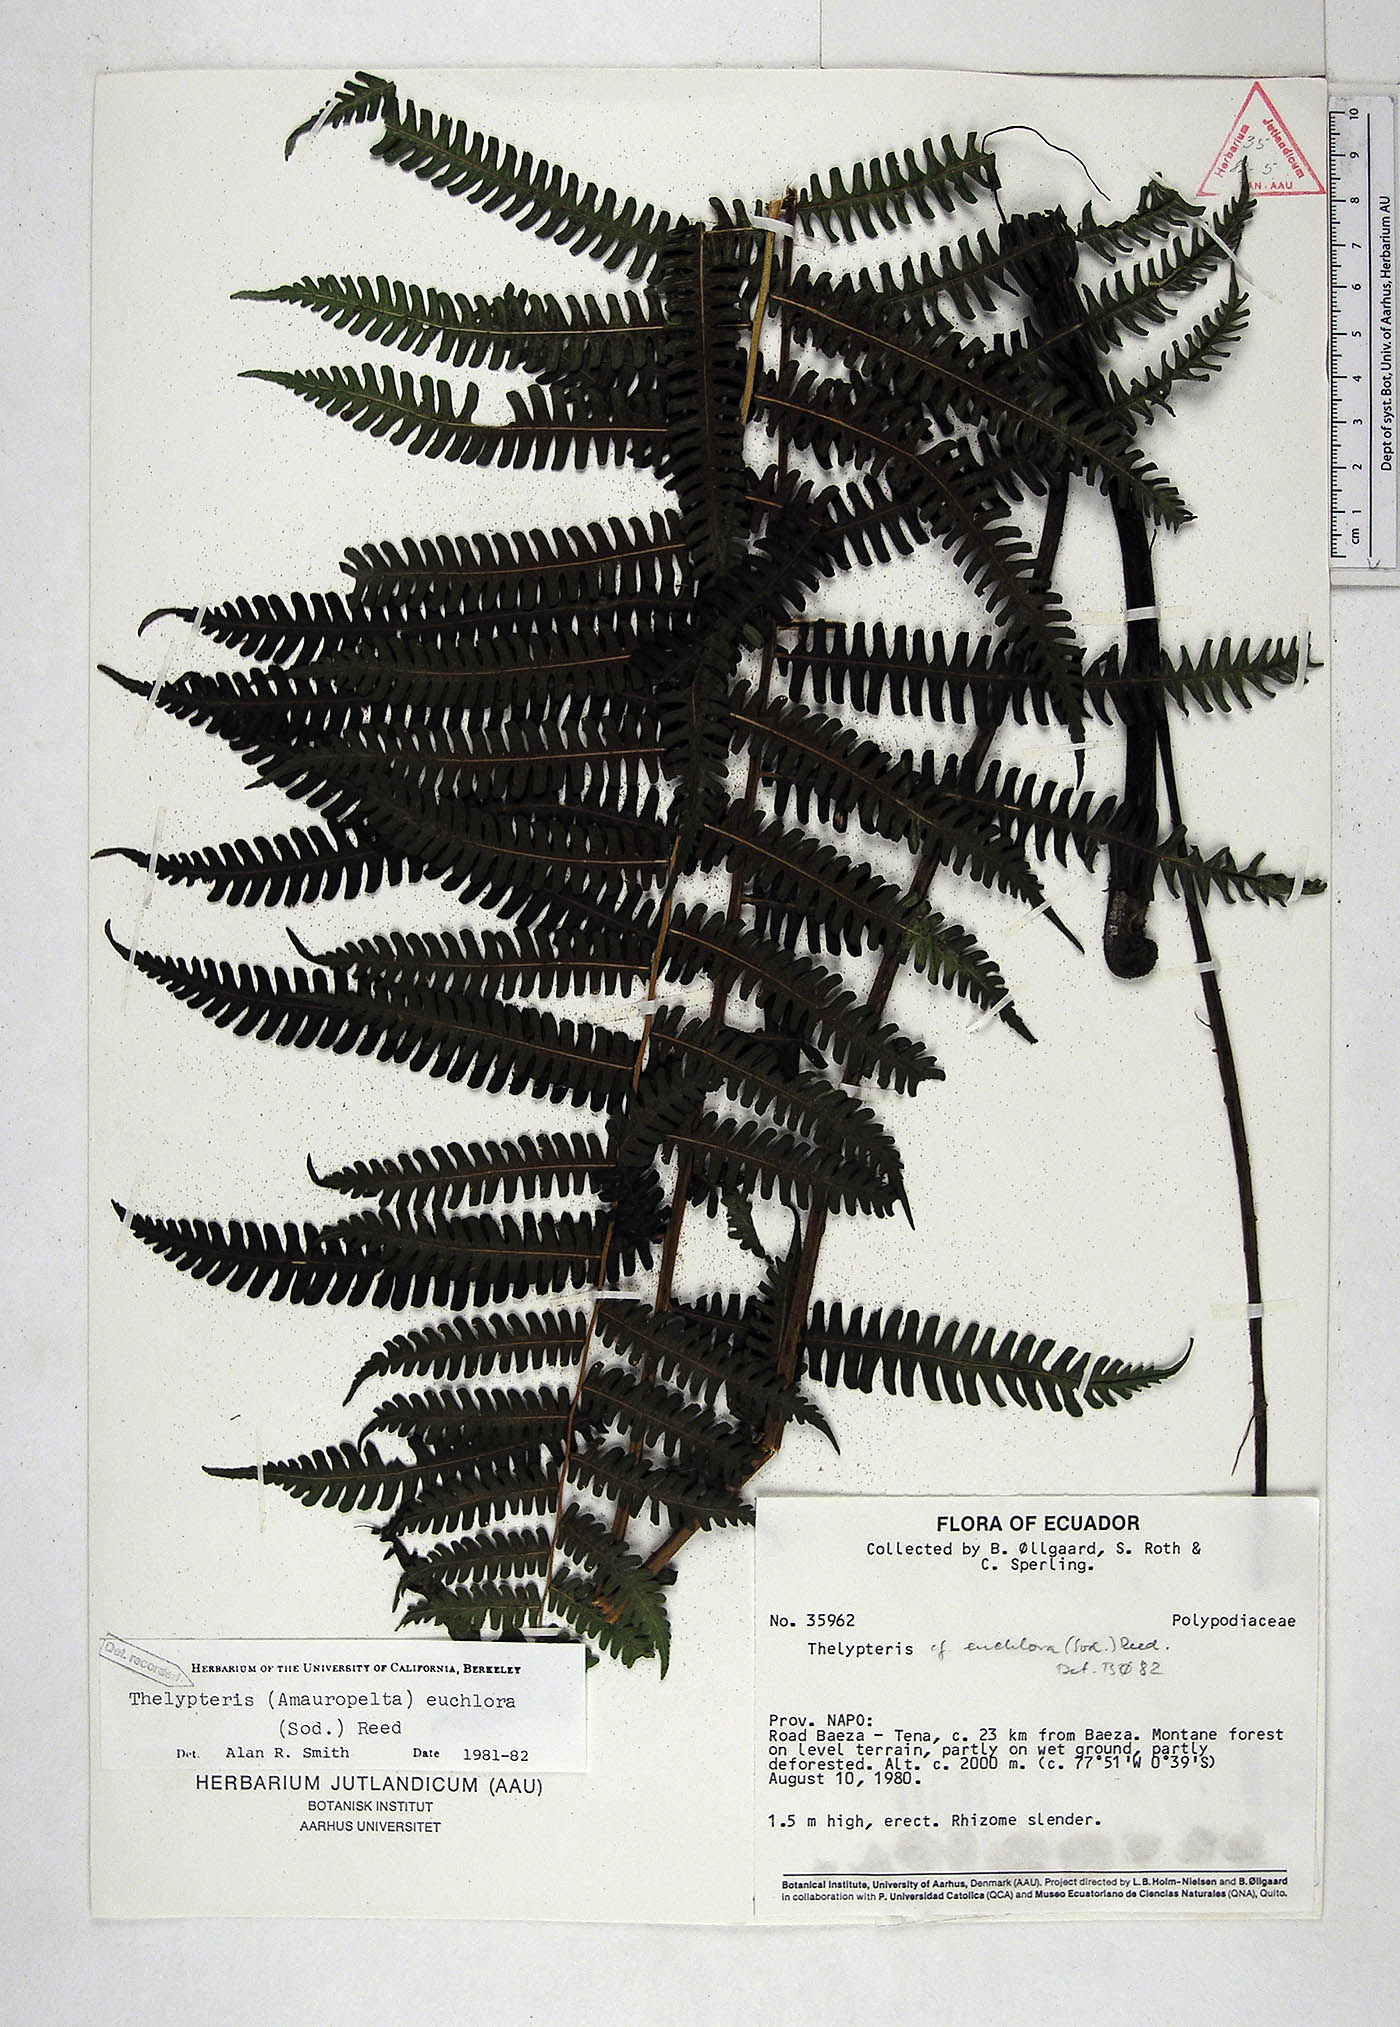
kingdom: Plantae
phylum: Tracheophyta
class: Polypodiopsida
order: Polypodiales
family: Thelypteridaceae
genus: Amauropelta
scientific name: Amauropelta euchlora
